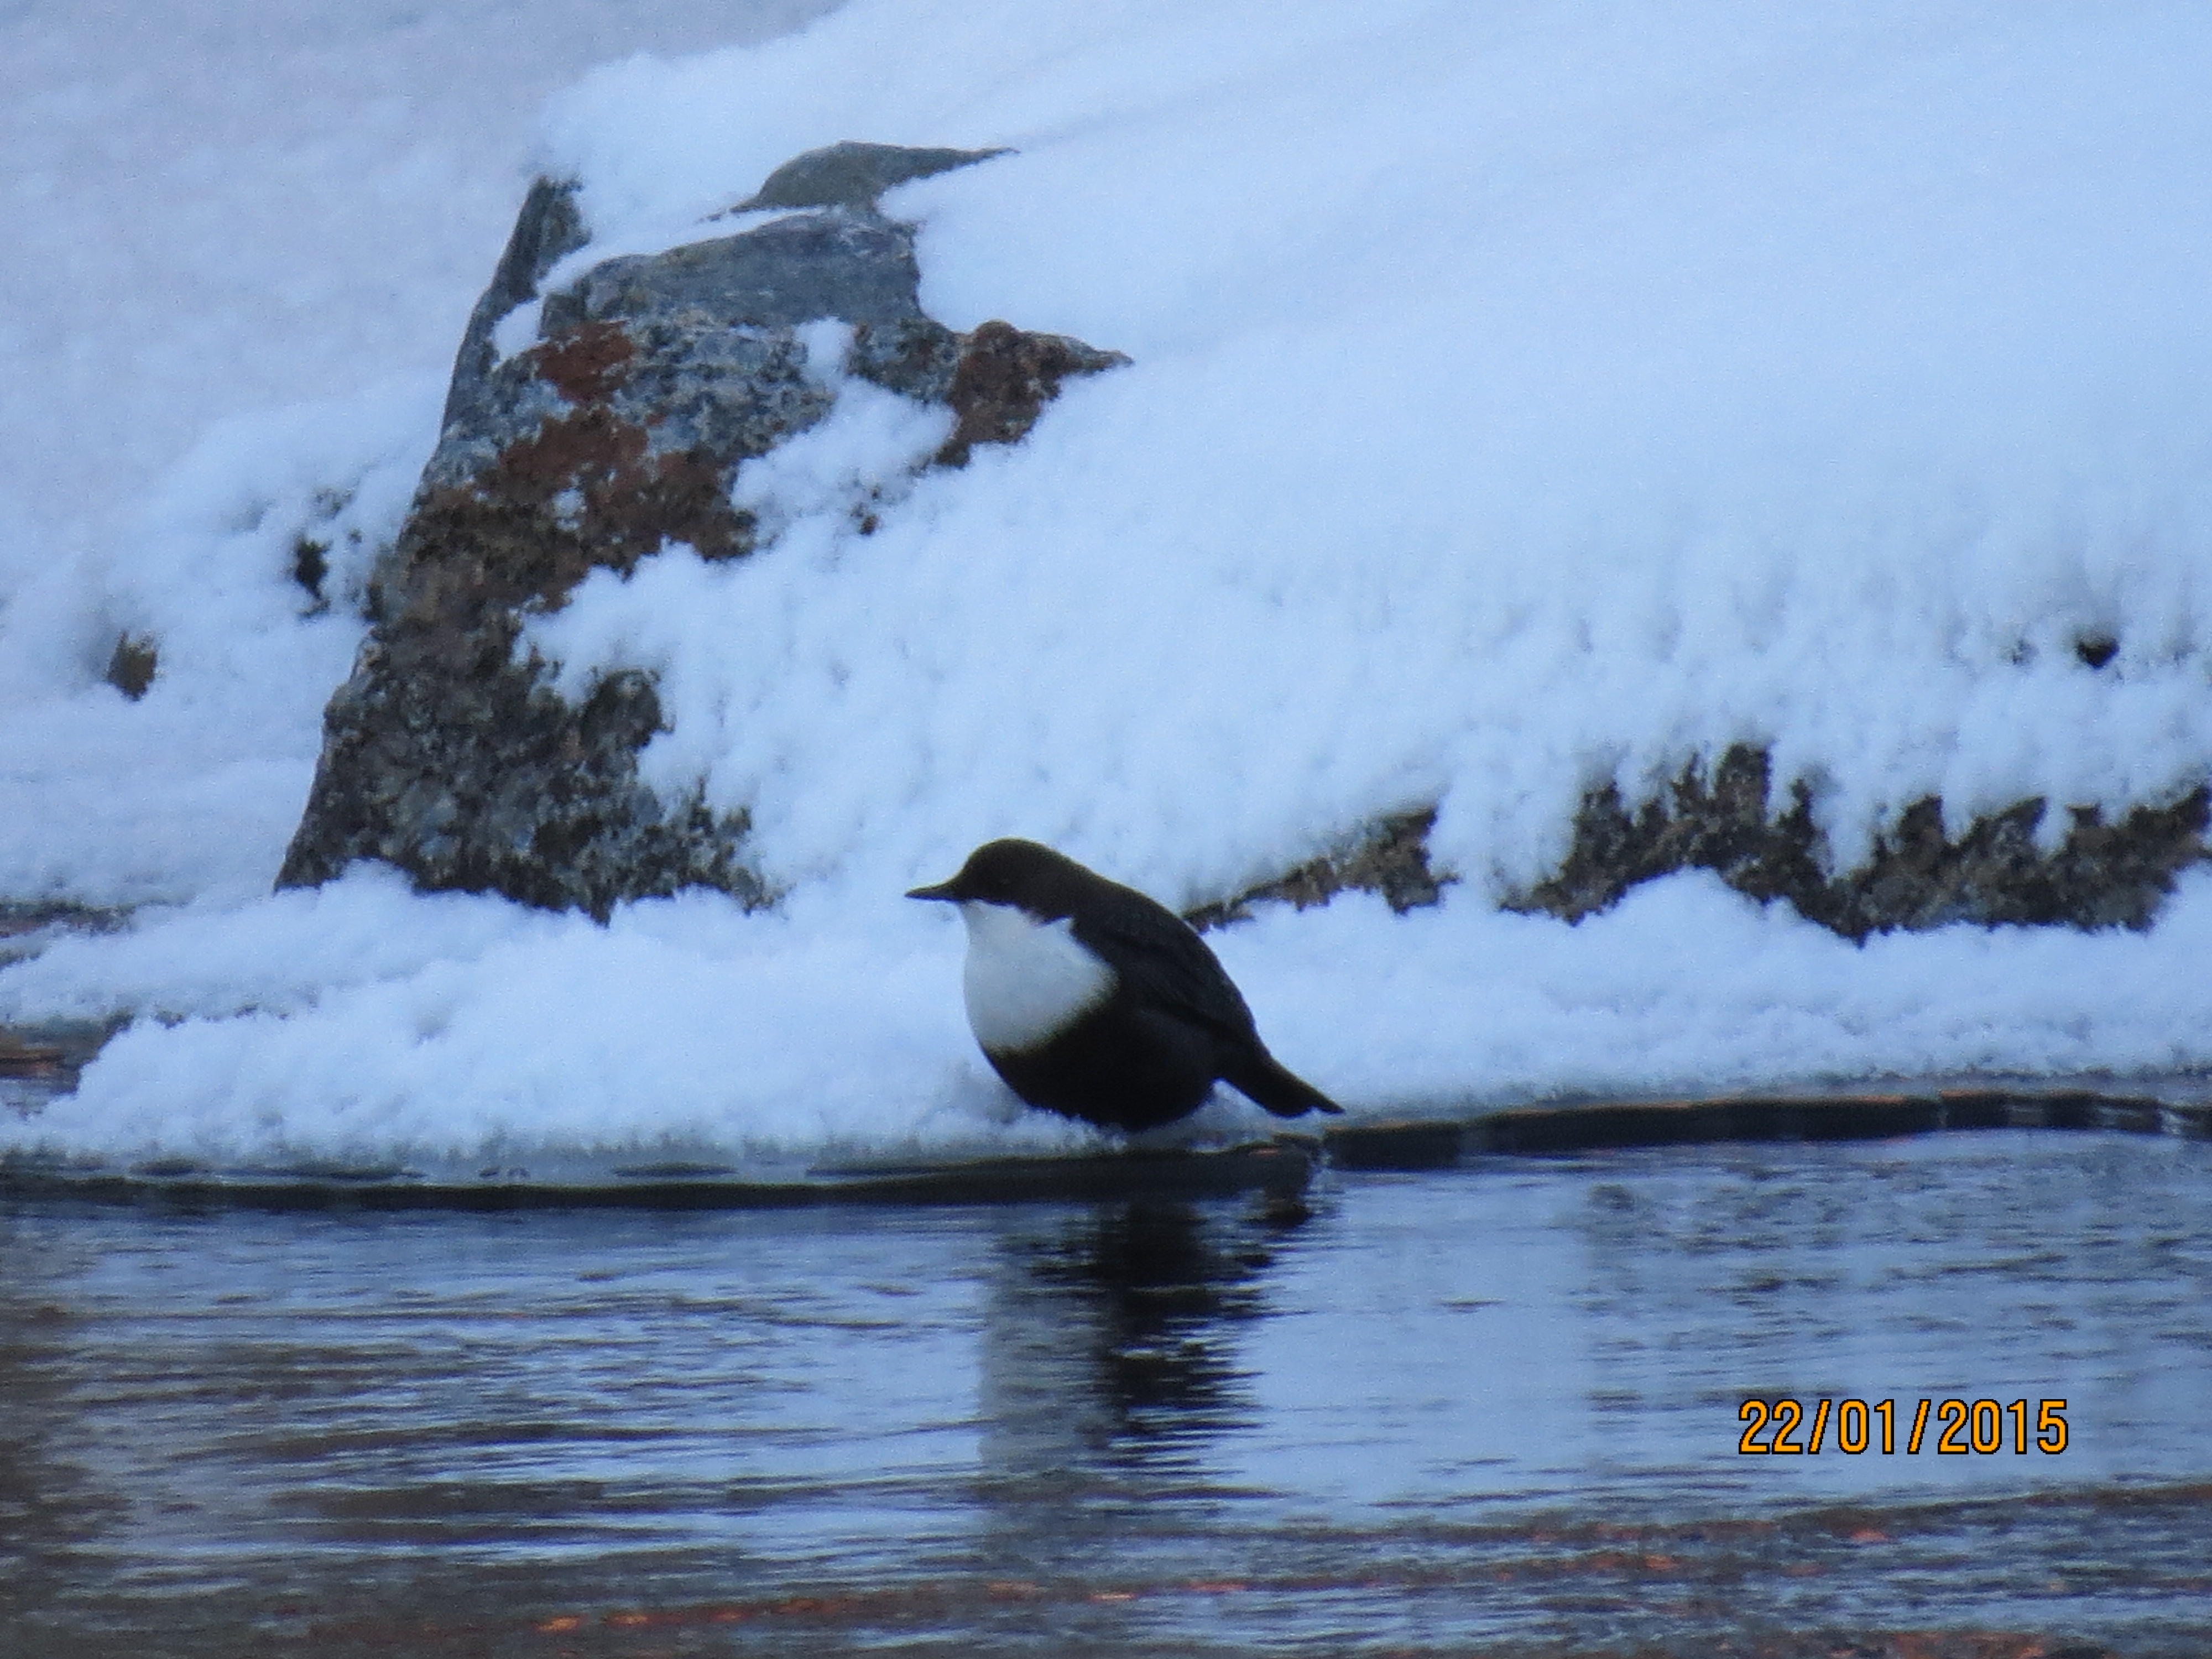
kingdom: Animalia
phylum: Chordata
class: Aves
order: Passeriformes
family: Cinclidae
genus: Cinclus
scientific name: Cinclus cinclus
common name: White-throated dipper
